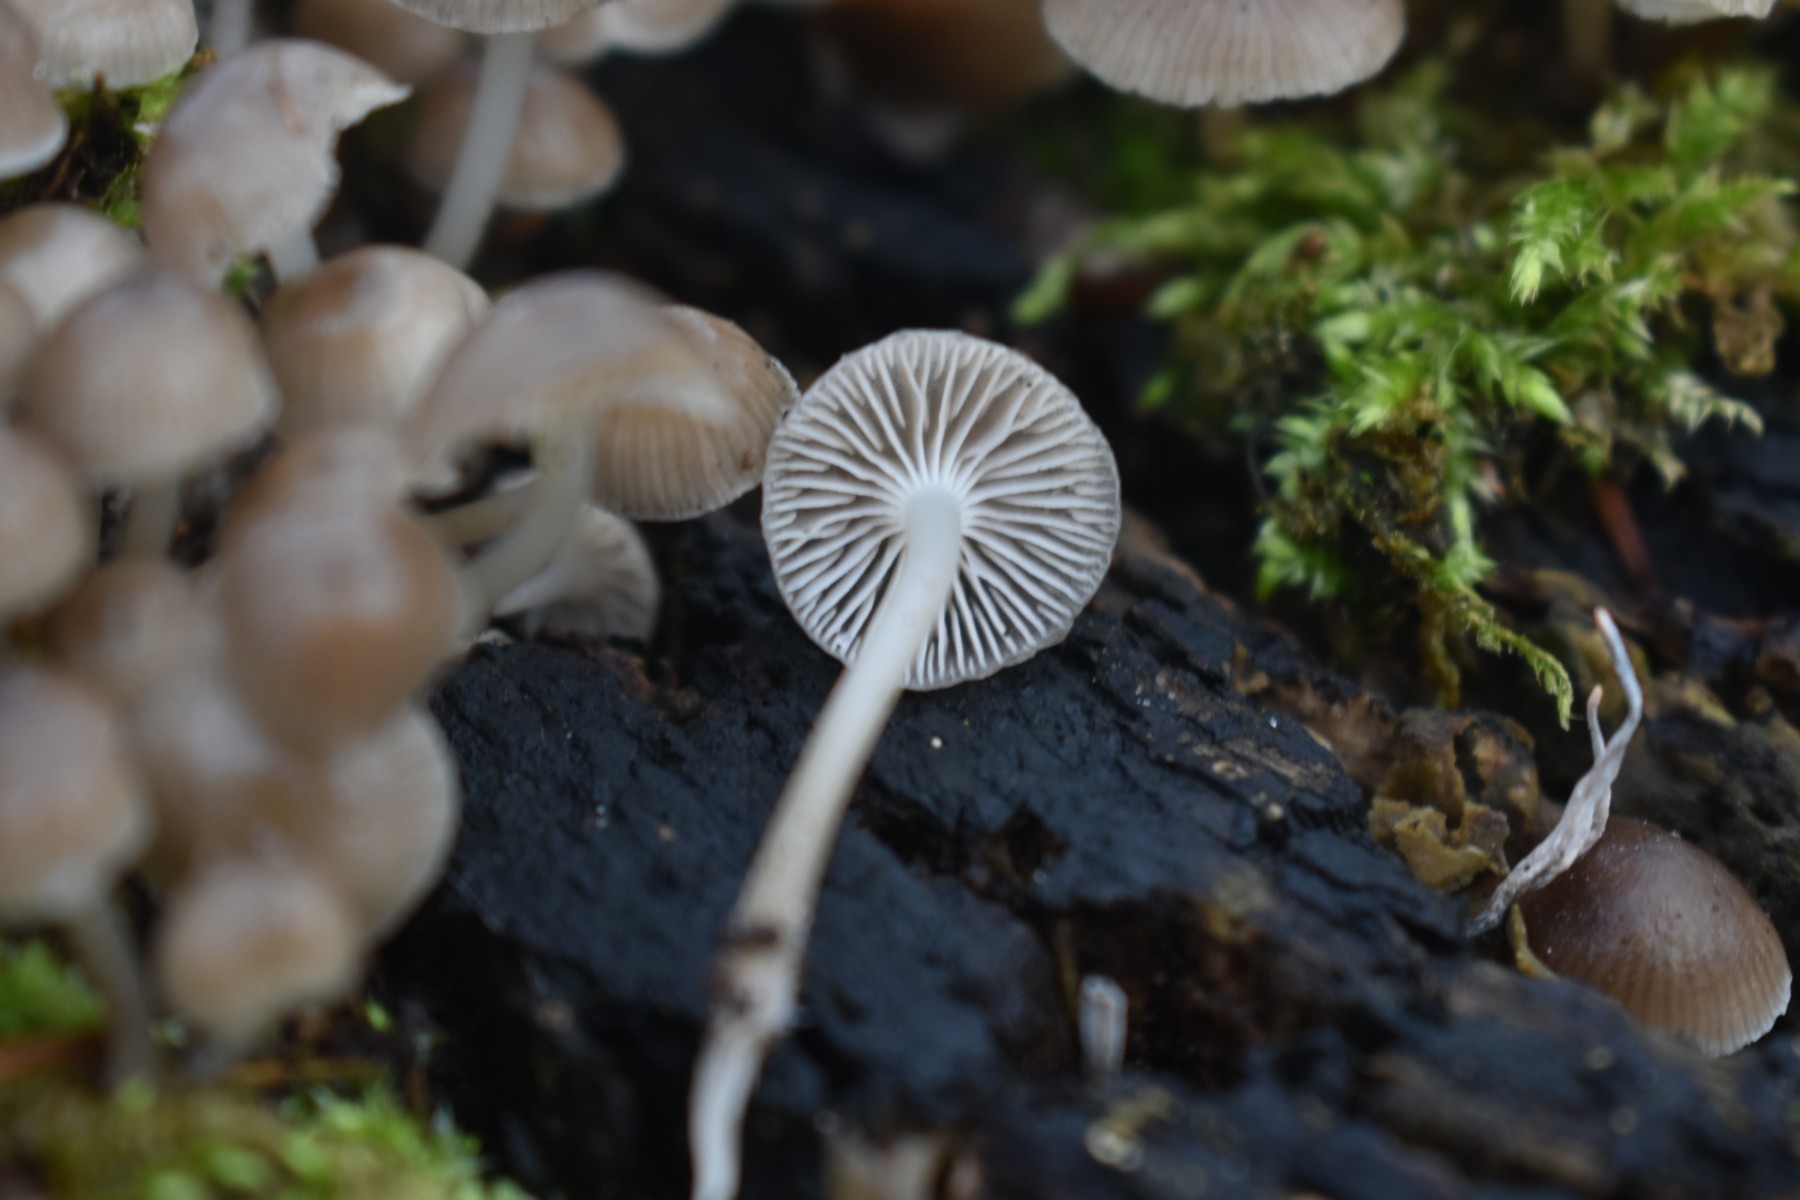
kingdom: Fungi
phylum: Basidiomycota
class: Agaricomycetes
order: Agaricales
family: Mycenaceae
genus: Mycena
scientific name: Mycena tintinnabulum
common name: vinter-huesvamp
